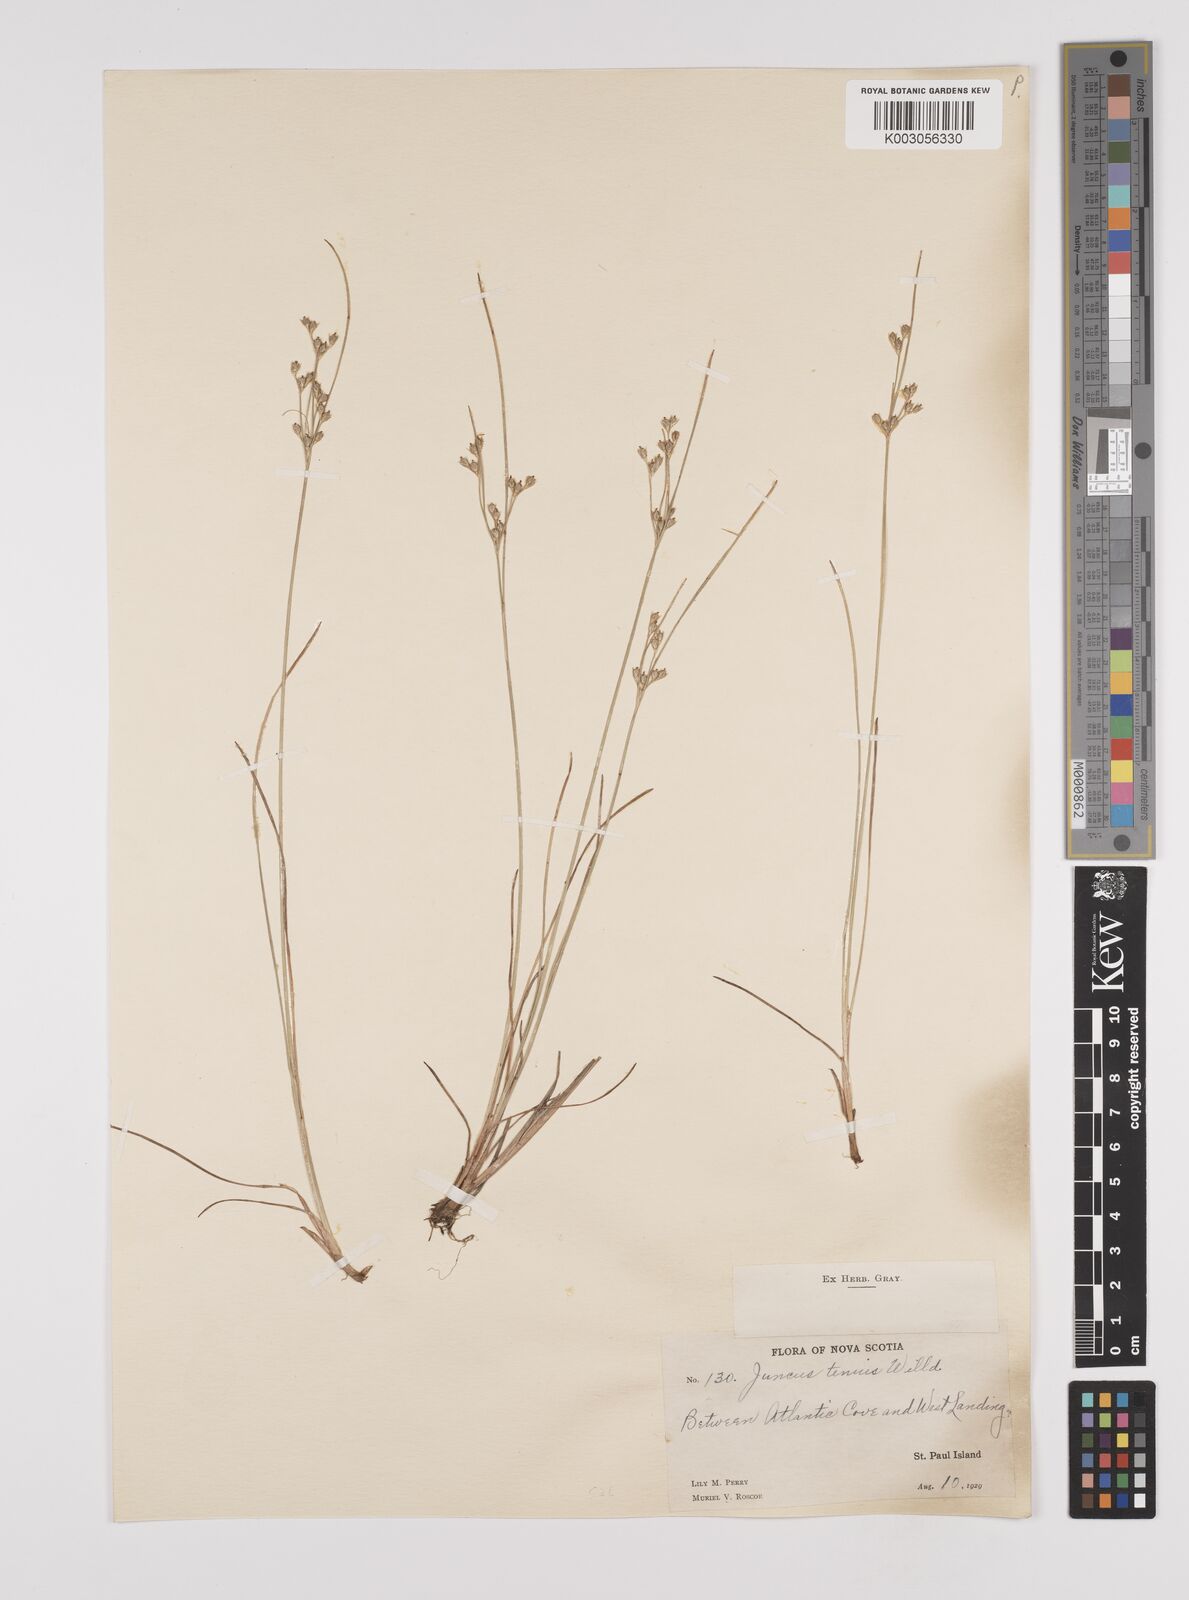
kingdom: Plantae
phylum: Tracheophyta
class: Liliopsida
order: Poales
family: Juncaceae
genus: Juncus
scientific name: Juncus tenuis
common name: Slender rush
